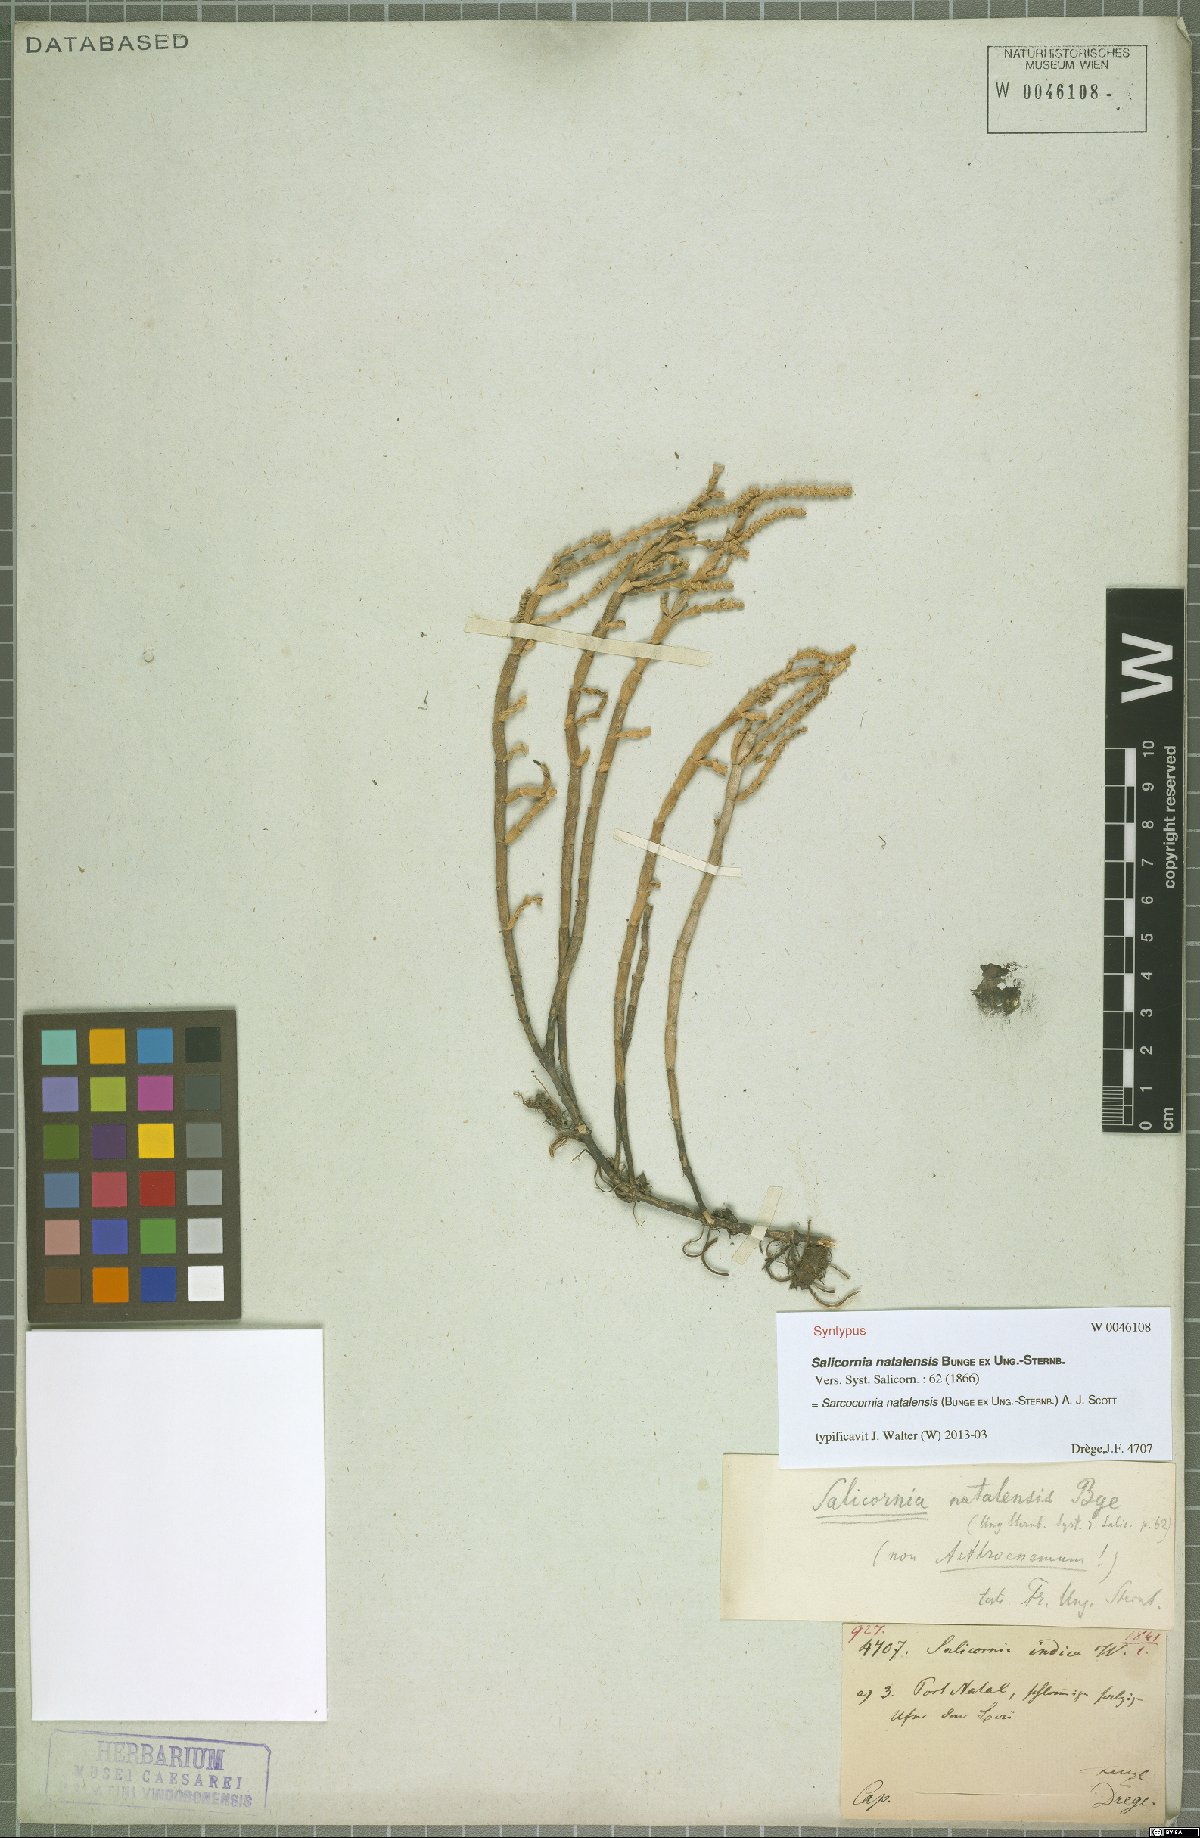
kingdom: Plantae
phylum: Tracheophyta
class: Magnoliopsida
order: Caryophyllales
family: Amaranthaceae
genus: Salicornia
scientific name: Salicornia natalensis
